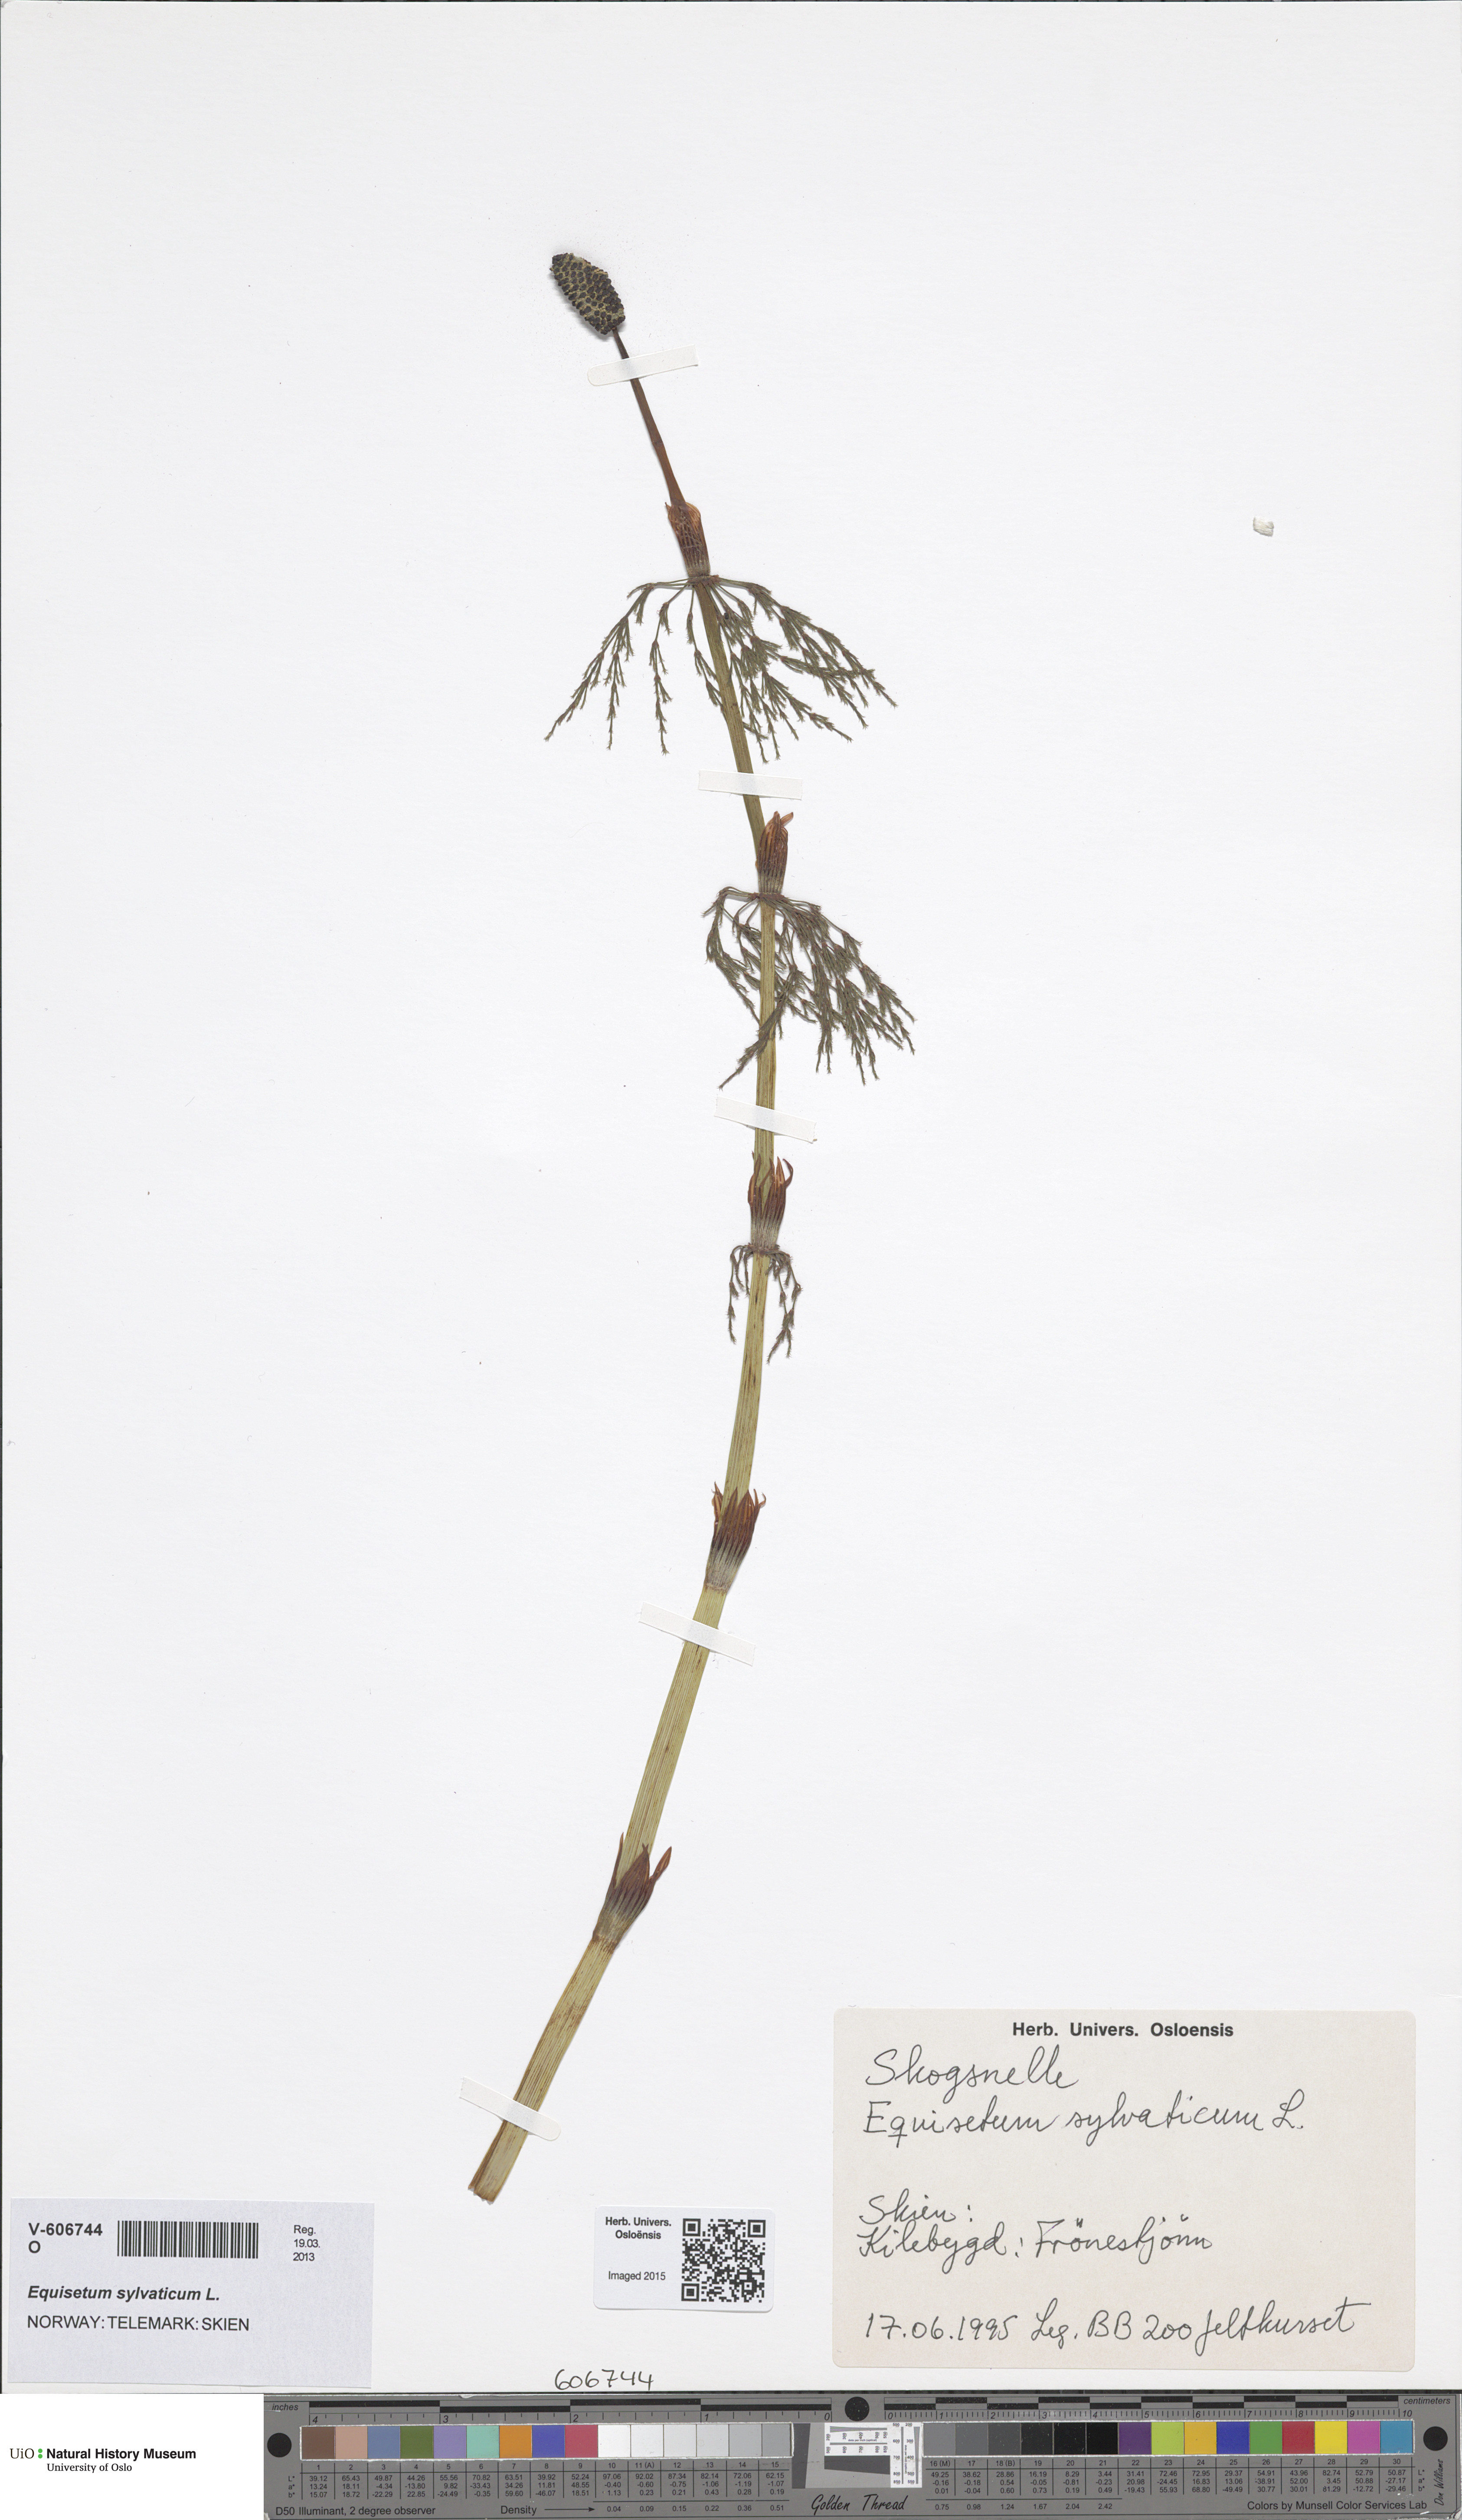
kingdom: Plantae
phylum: Tracheophyta
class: Polypodiopsida
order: Equisetales
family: Equisetaceae
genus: Equisetum
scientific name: Equisetum sylvaticum
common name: Wood horsetail
